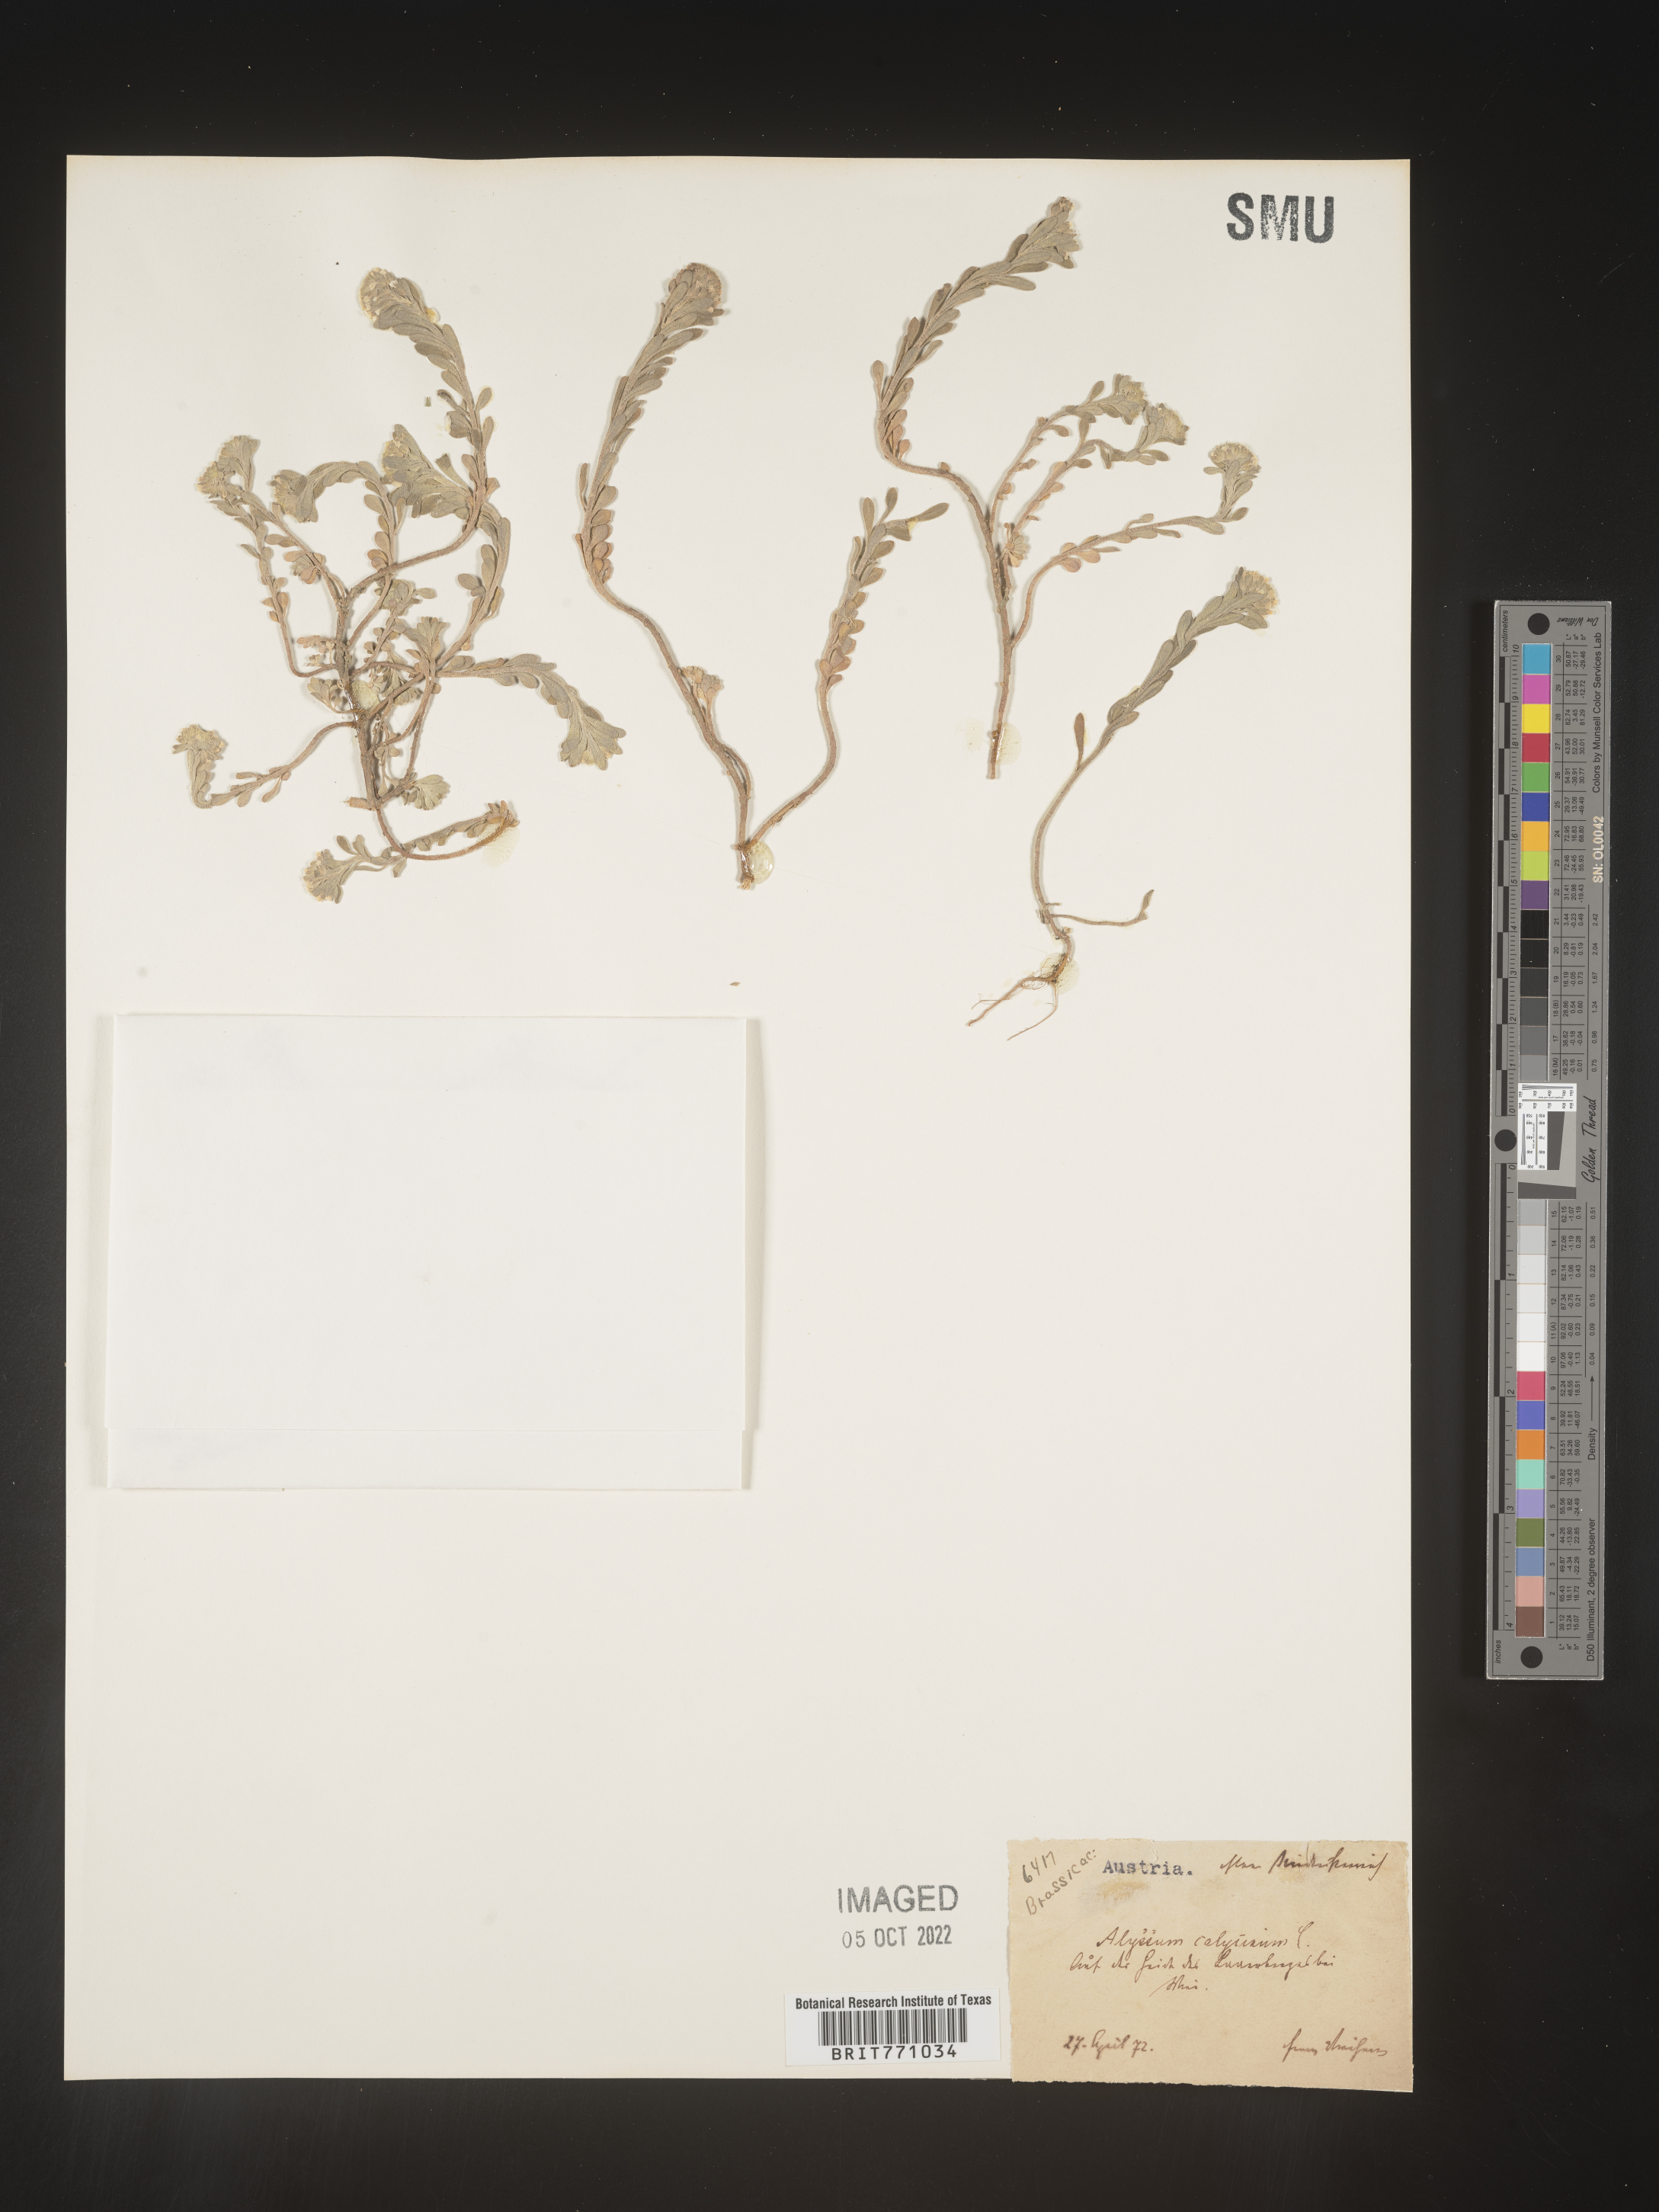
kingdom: Plantae
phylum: Tracheophyta
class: Magnoliopsida
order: Brassicales
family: Brassicaceae
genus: Alyssum
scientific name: Alyssum
